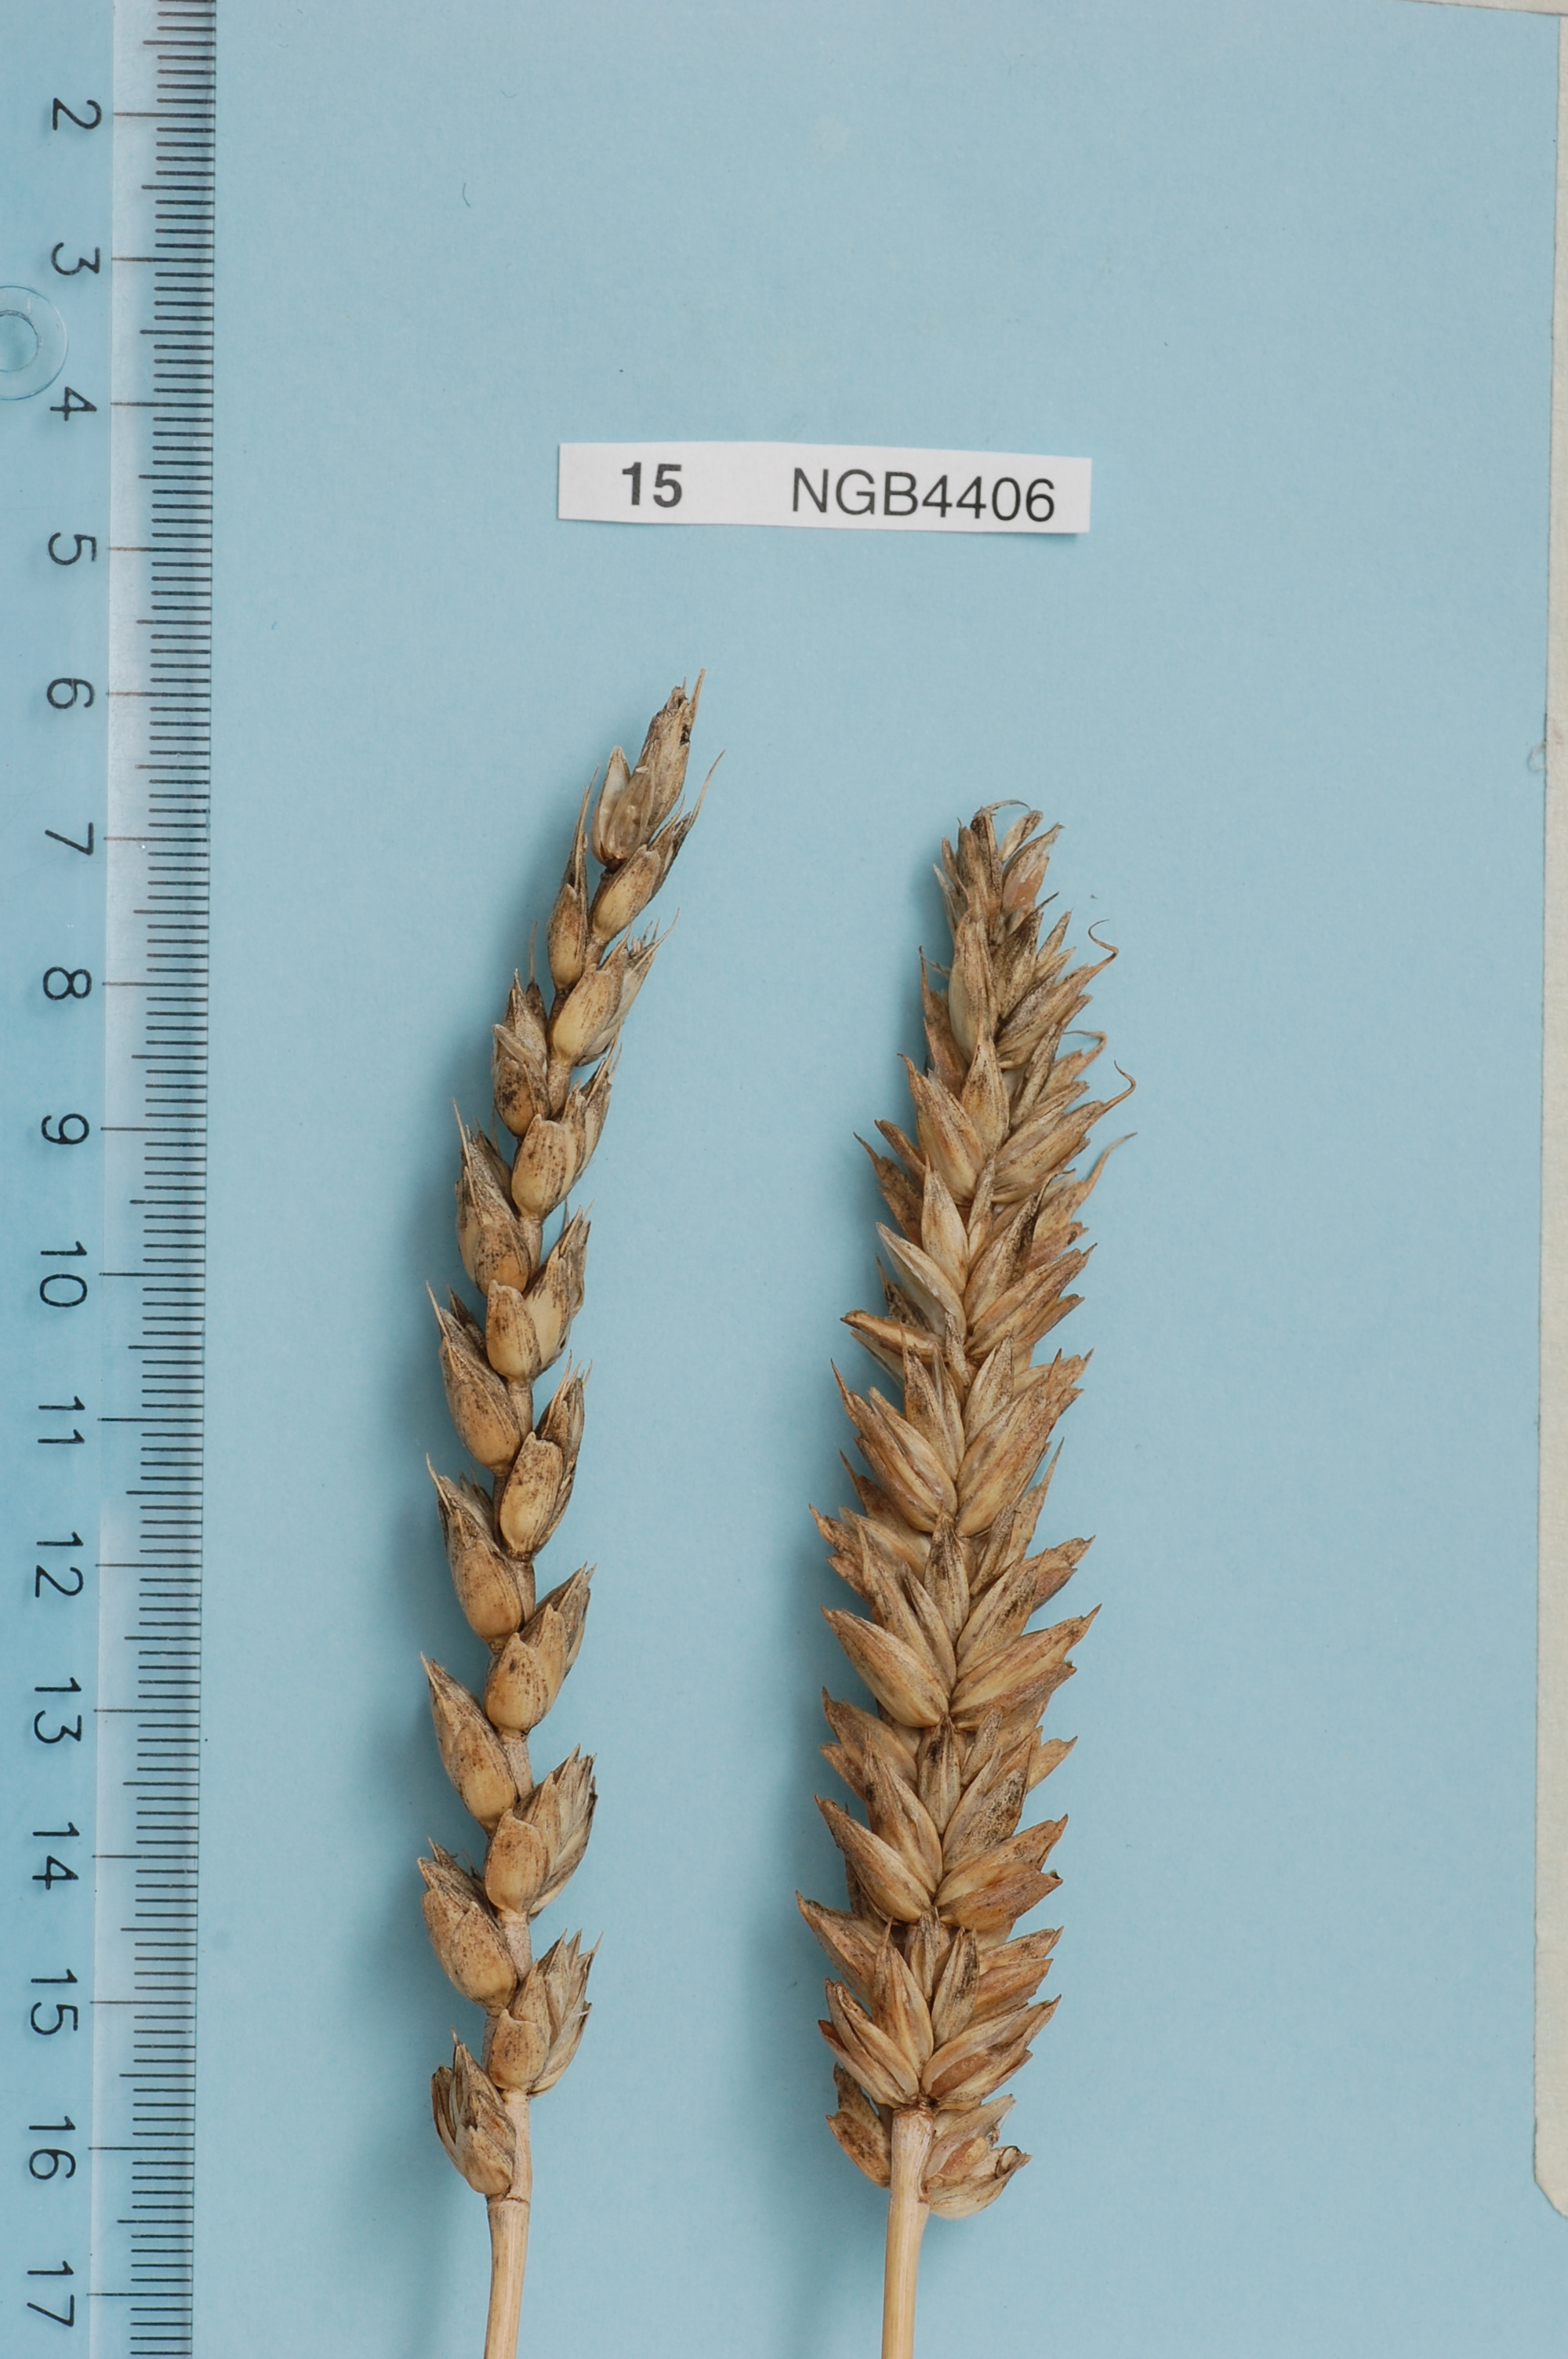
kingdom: Plantae
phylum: Tracheophyta
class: Liliopsida
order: Poales
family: Poaceae
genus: Triticum
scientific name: Triticum aestivum
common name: Common wheat
